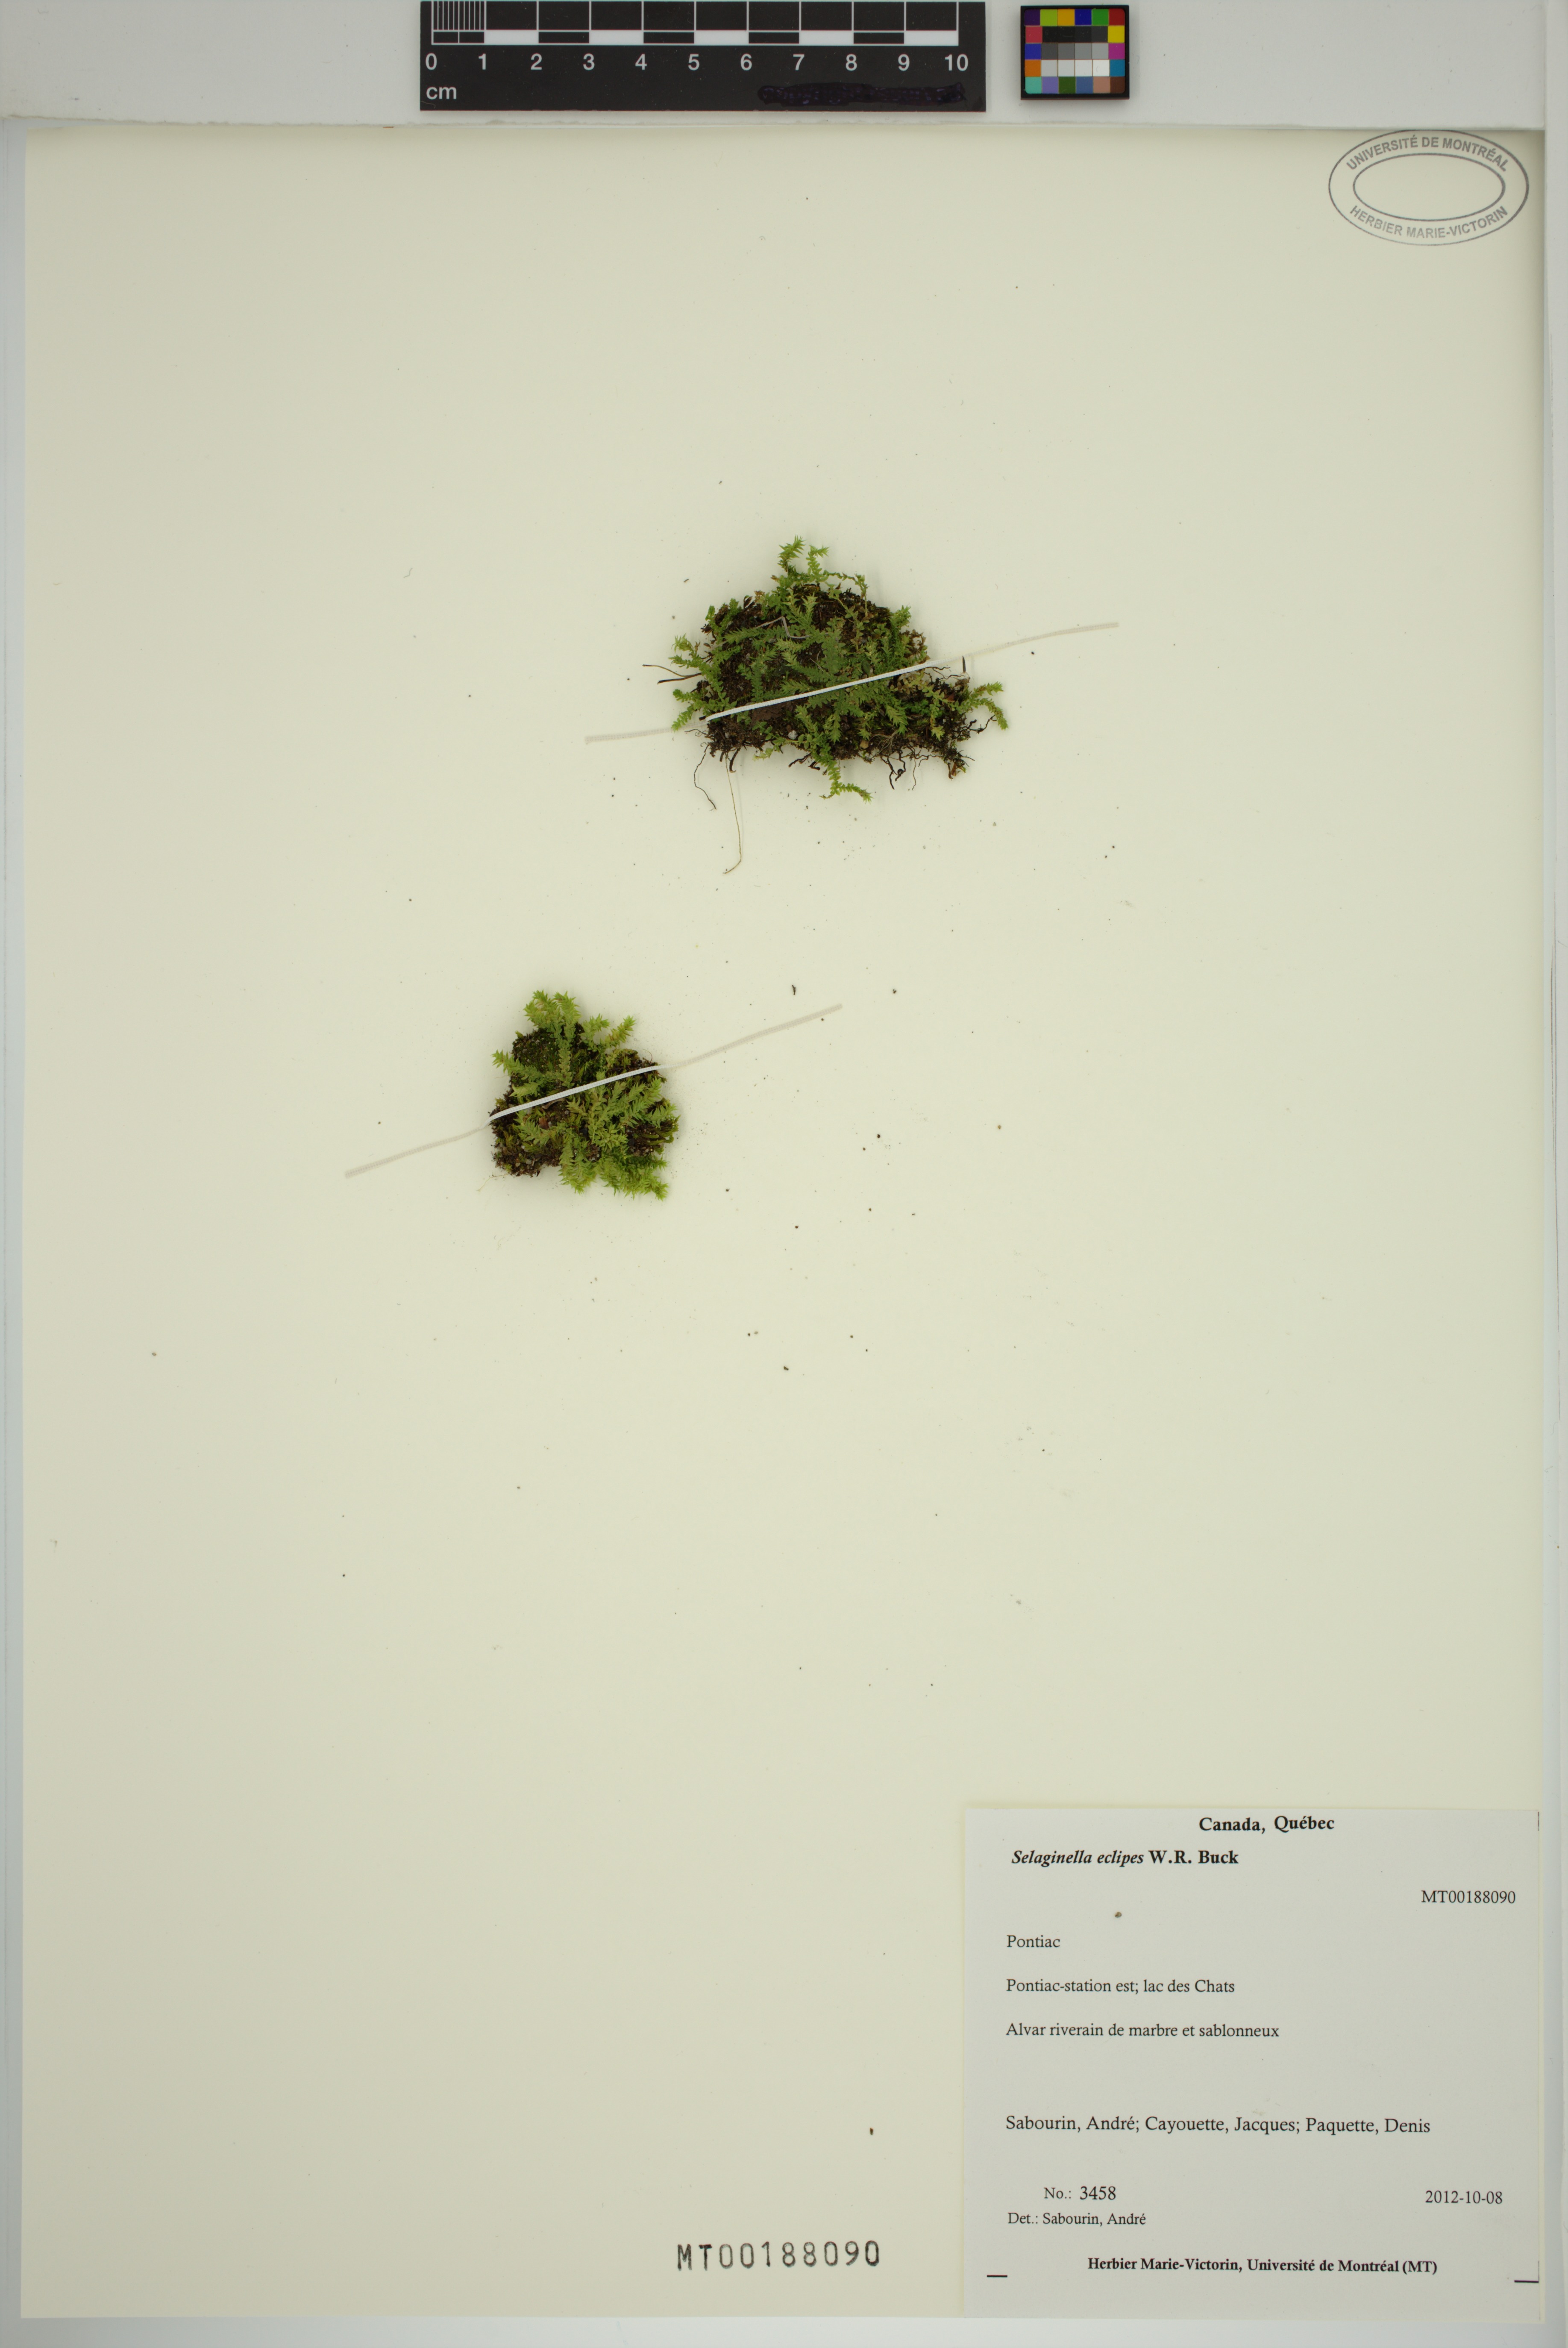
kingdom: Plantae
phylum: Tracheophyta
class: Lycopodiopsida
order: Selaginellales
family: Selaginellaceae
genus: Selaginella
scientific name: Selaginella eclipes
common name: Buck's meadow spikemoss
